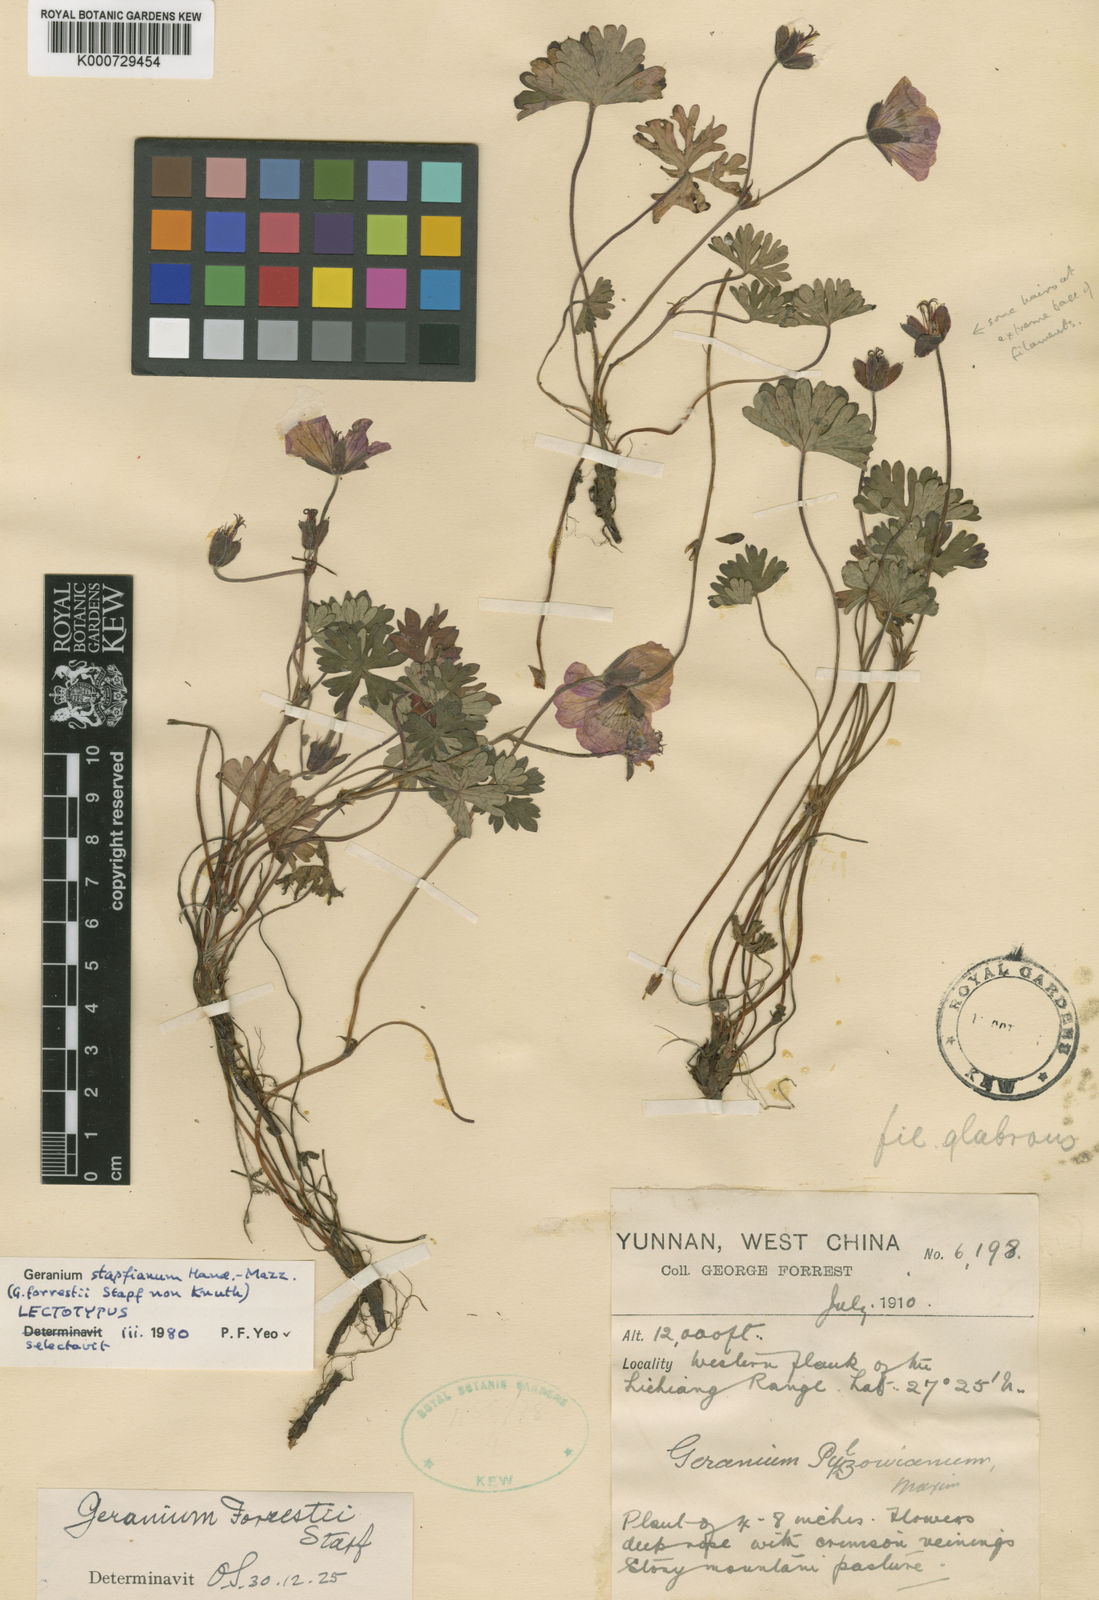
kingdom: Plantae
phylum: Tracheophyta
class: Magnoliopsida
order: Geraniales
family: Geraniaceae
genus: Geranium
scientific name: Geranium donianum
